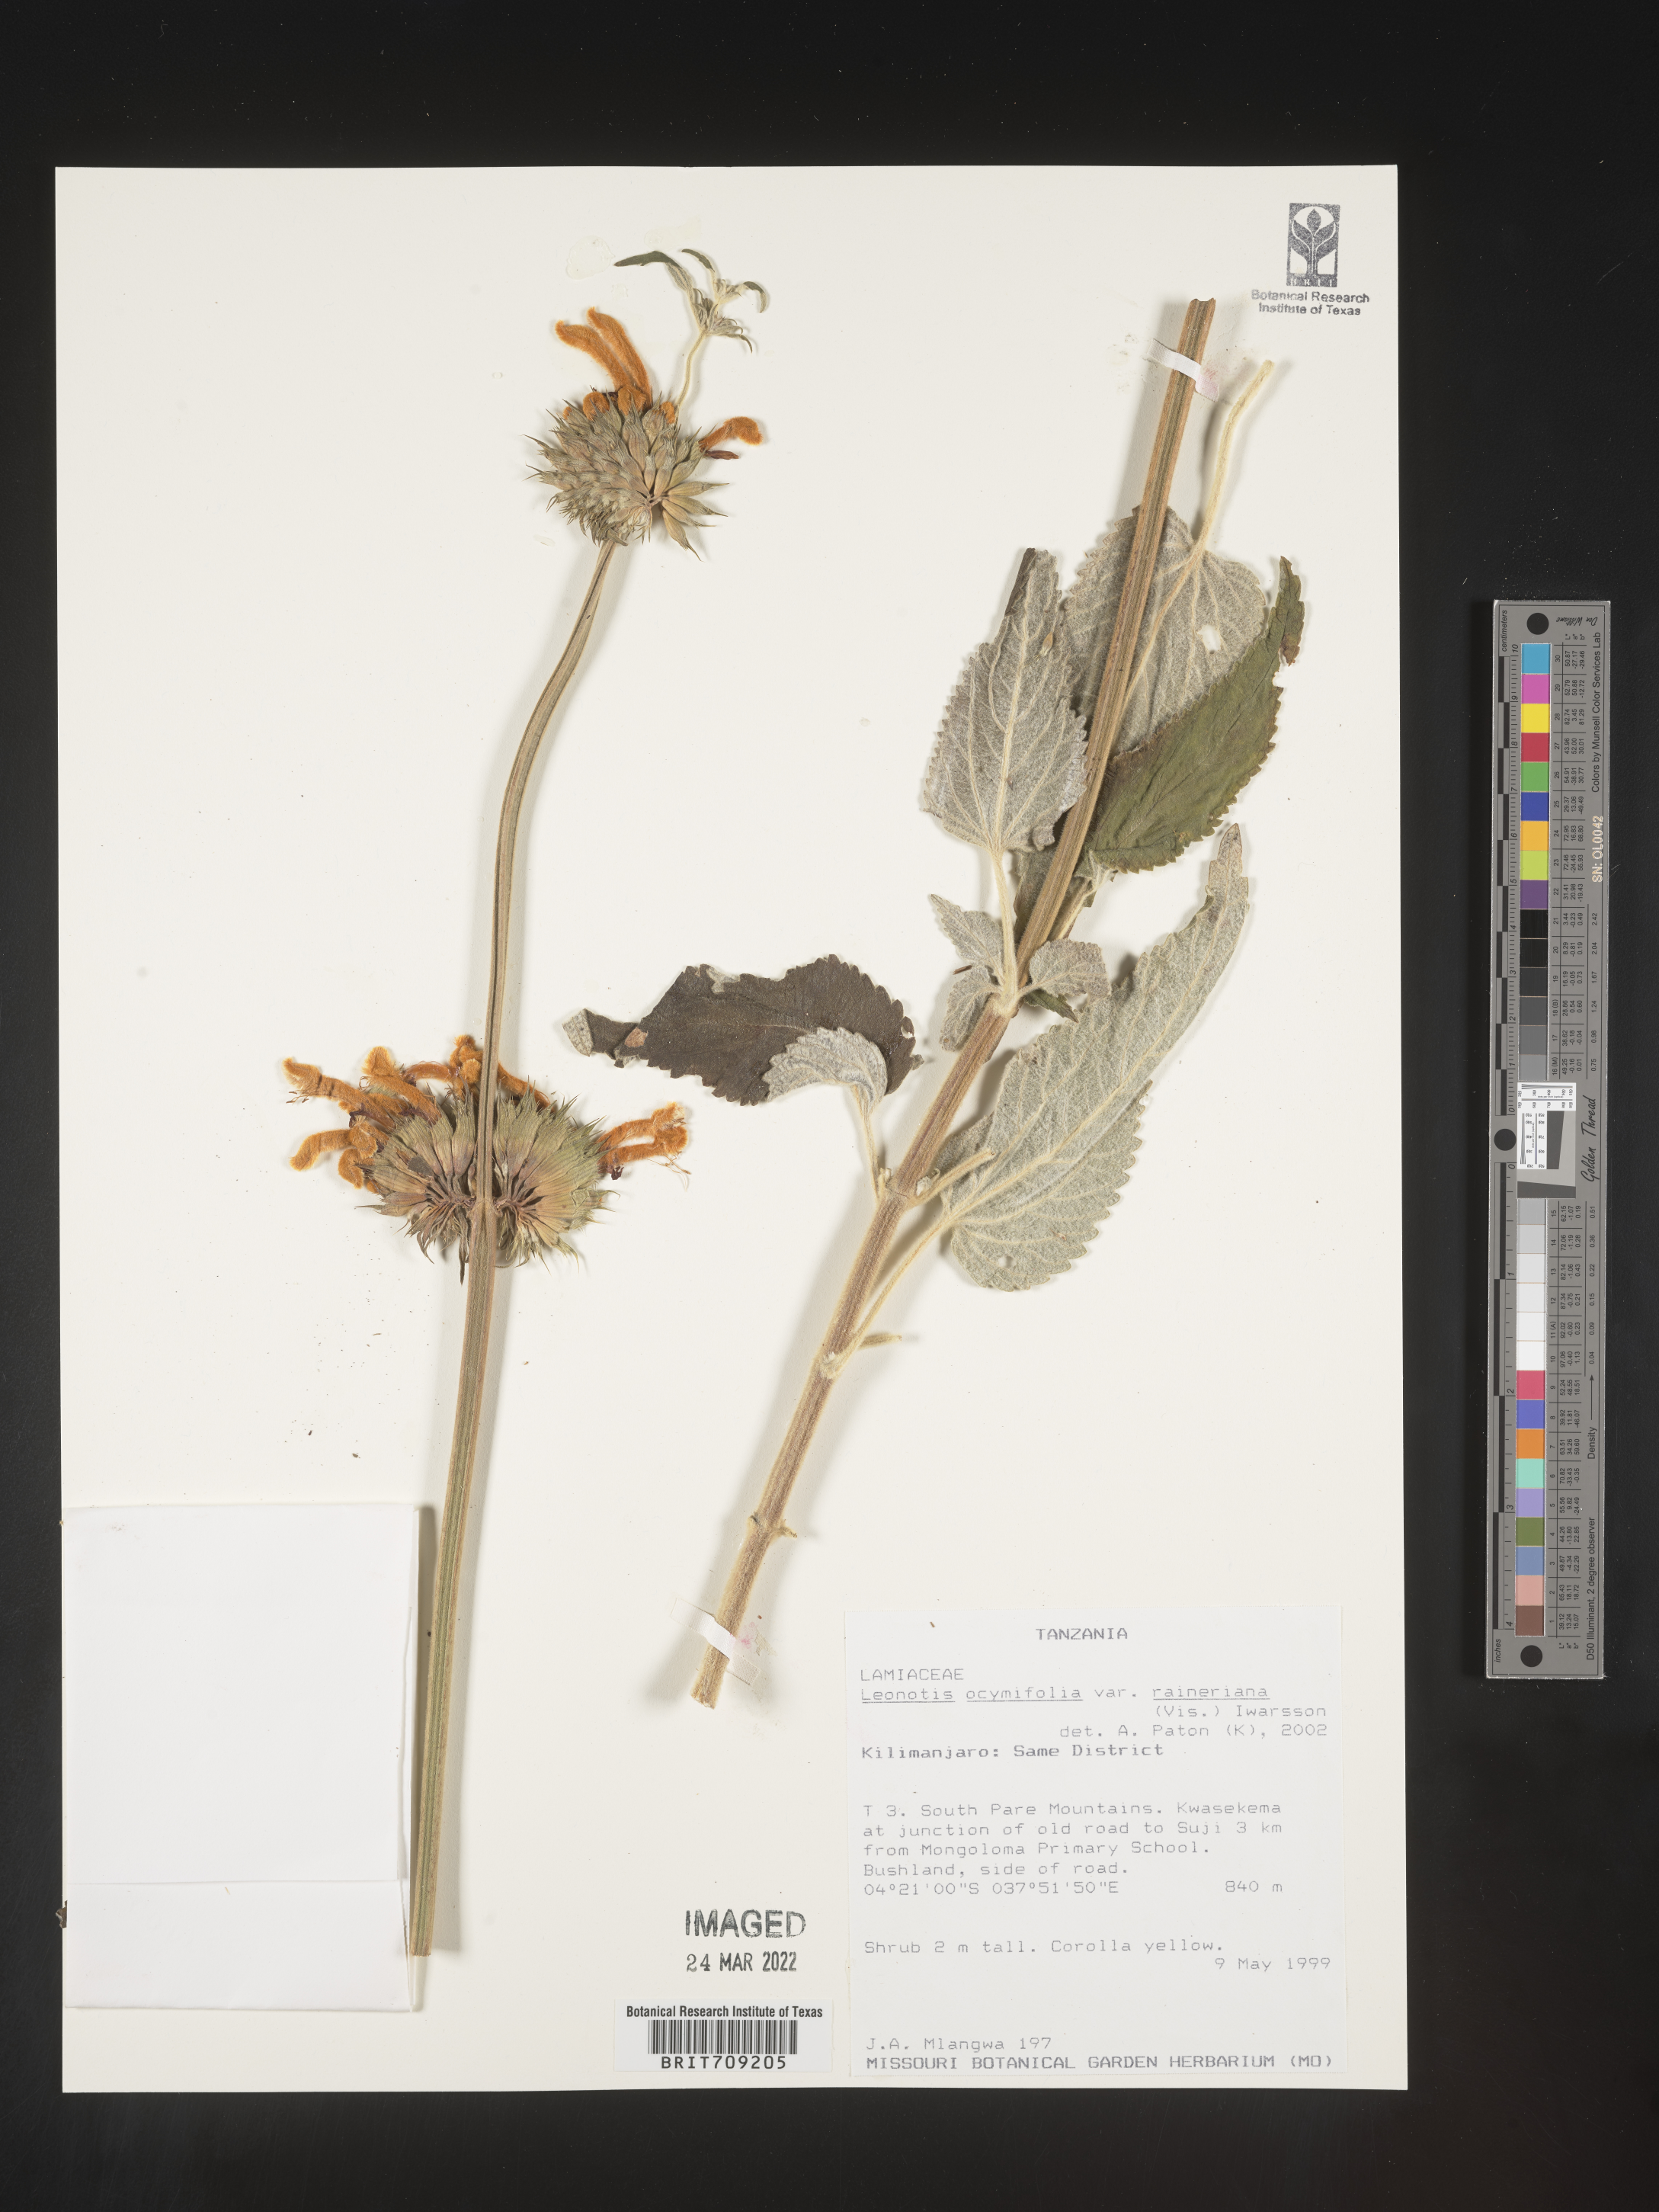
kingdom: Plantae
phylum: Tracheophyta
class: Magnoliopsida
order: Lamiales
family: Lamiaceae
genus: Leonotis
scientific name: Leonotis
